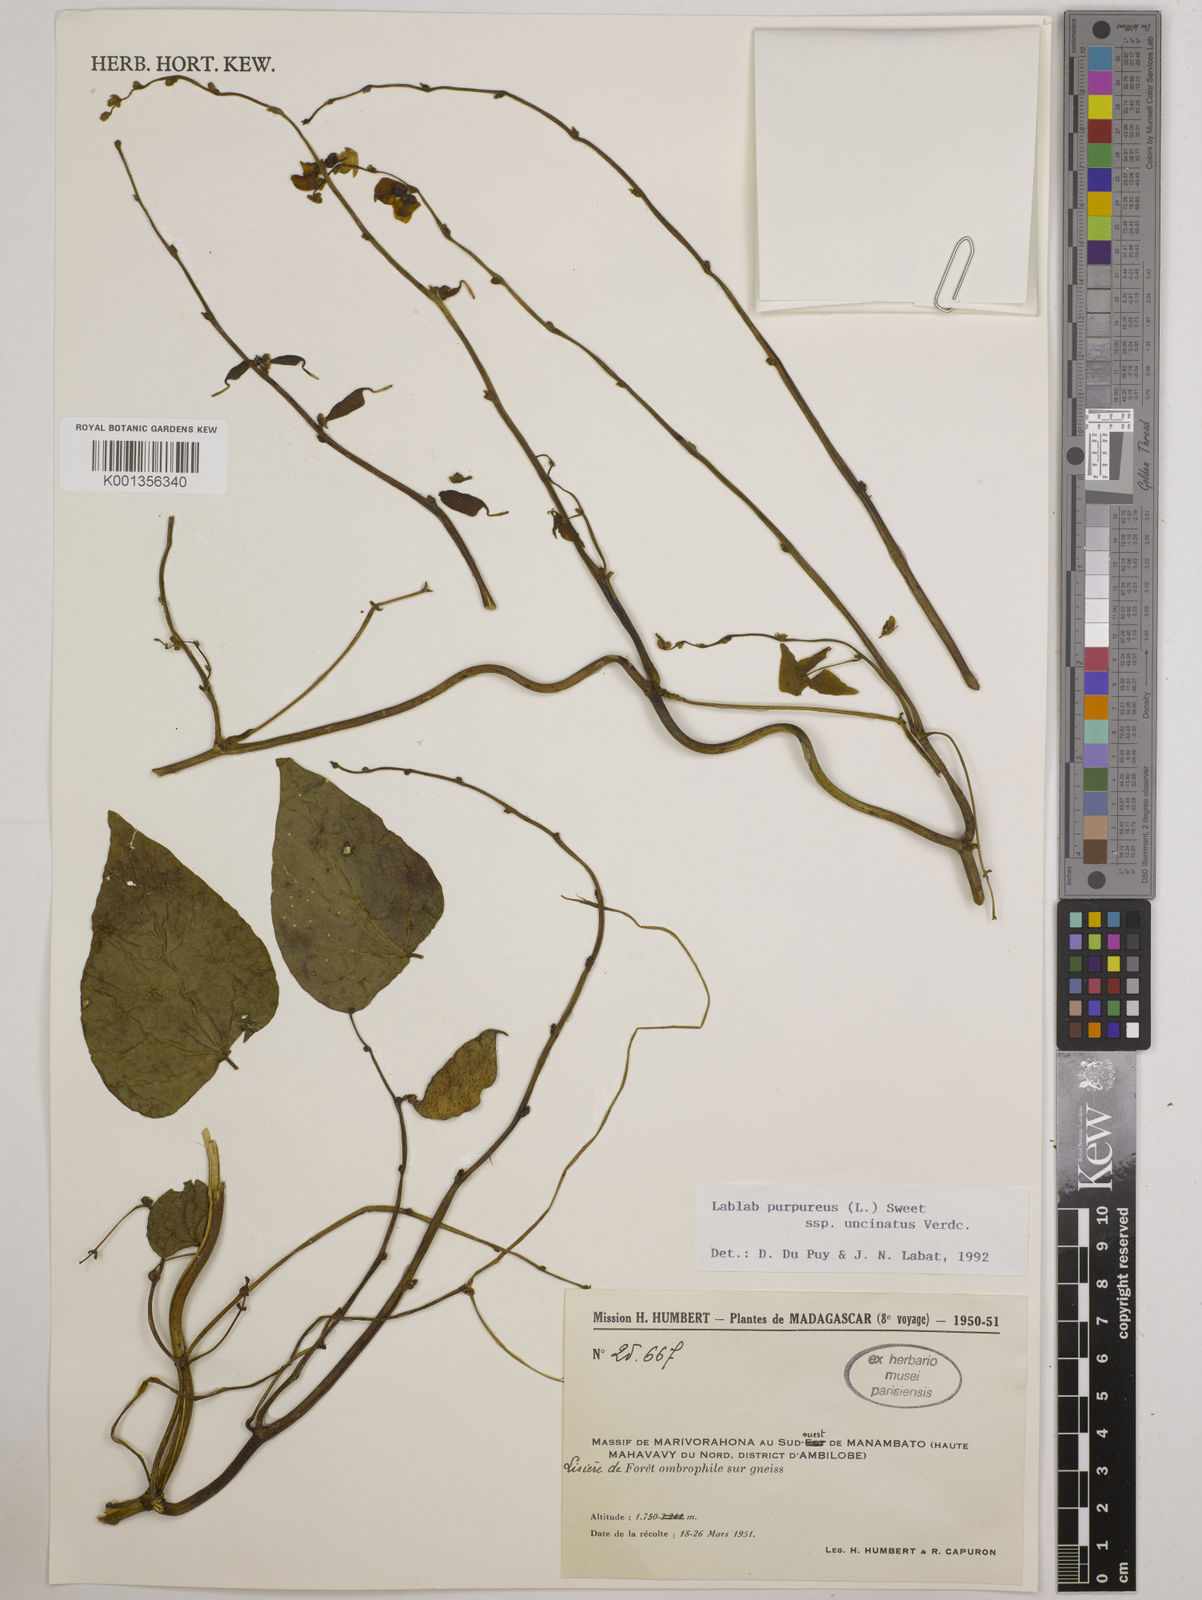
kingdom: Plantae
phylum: Tracheophyta
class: Magnoliopsida
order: Fabales
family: Fabaceae
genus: Lablab
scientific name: Lablab purpureus
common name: Lablab-bean
